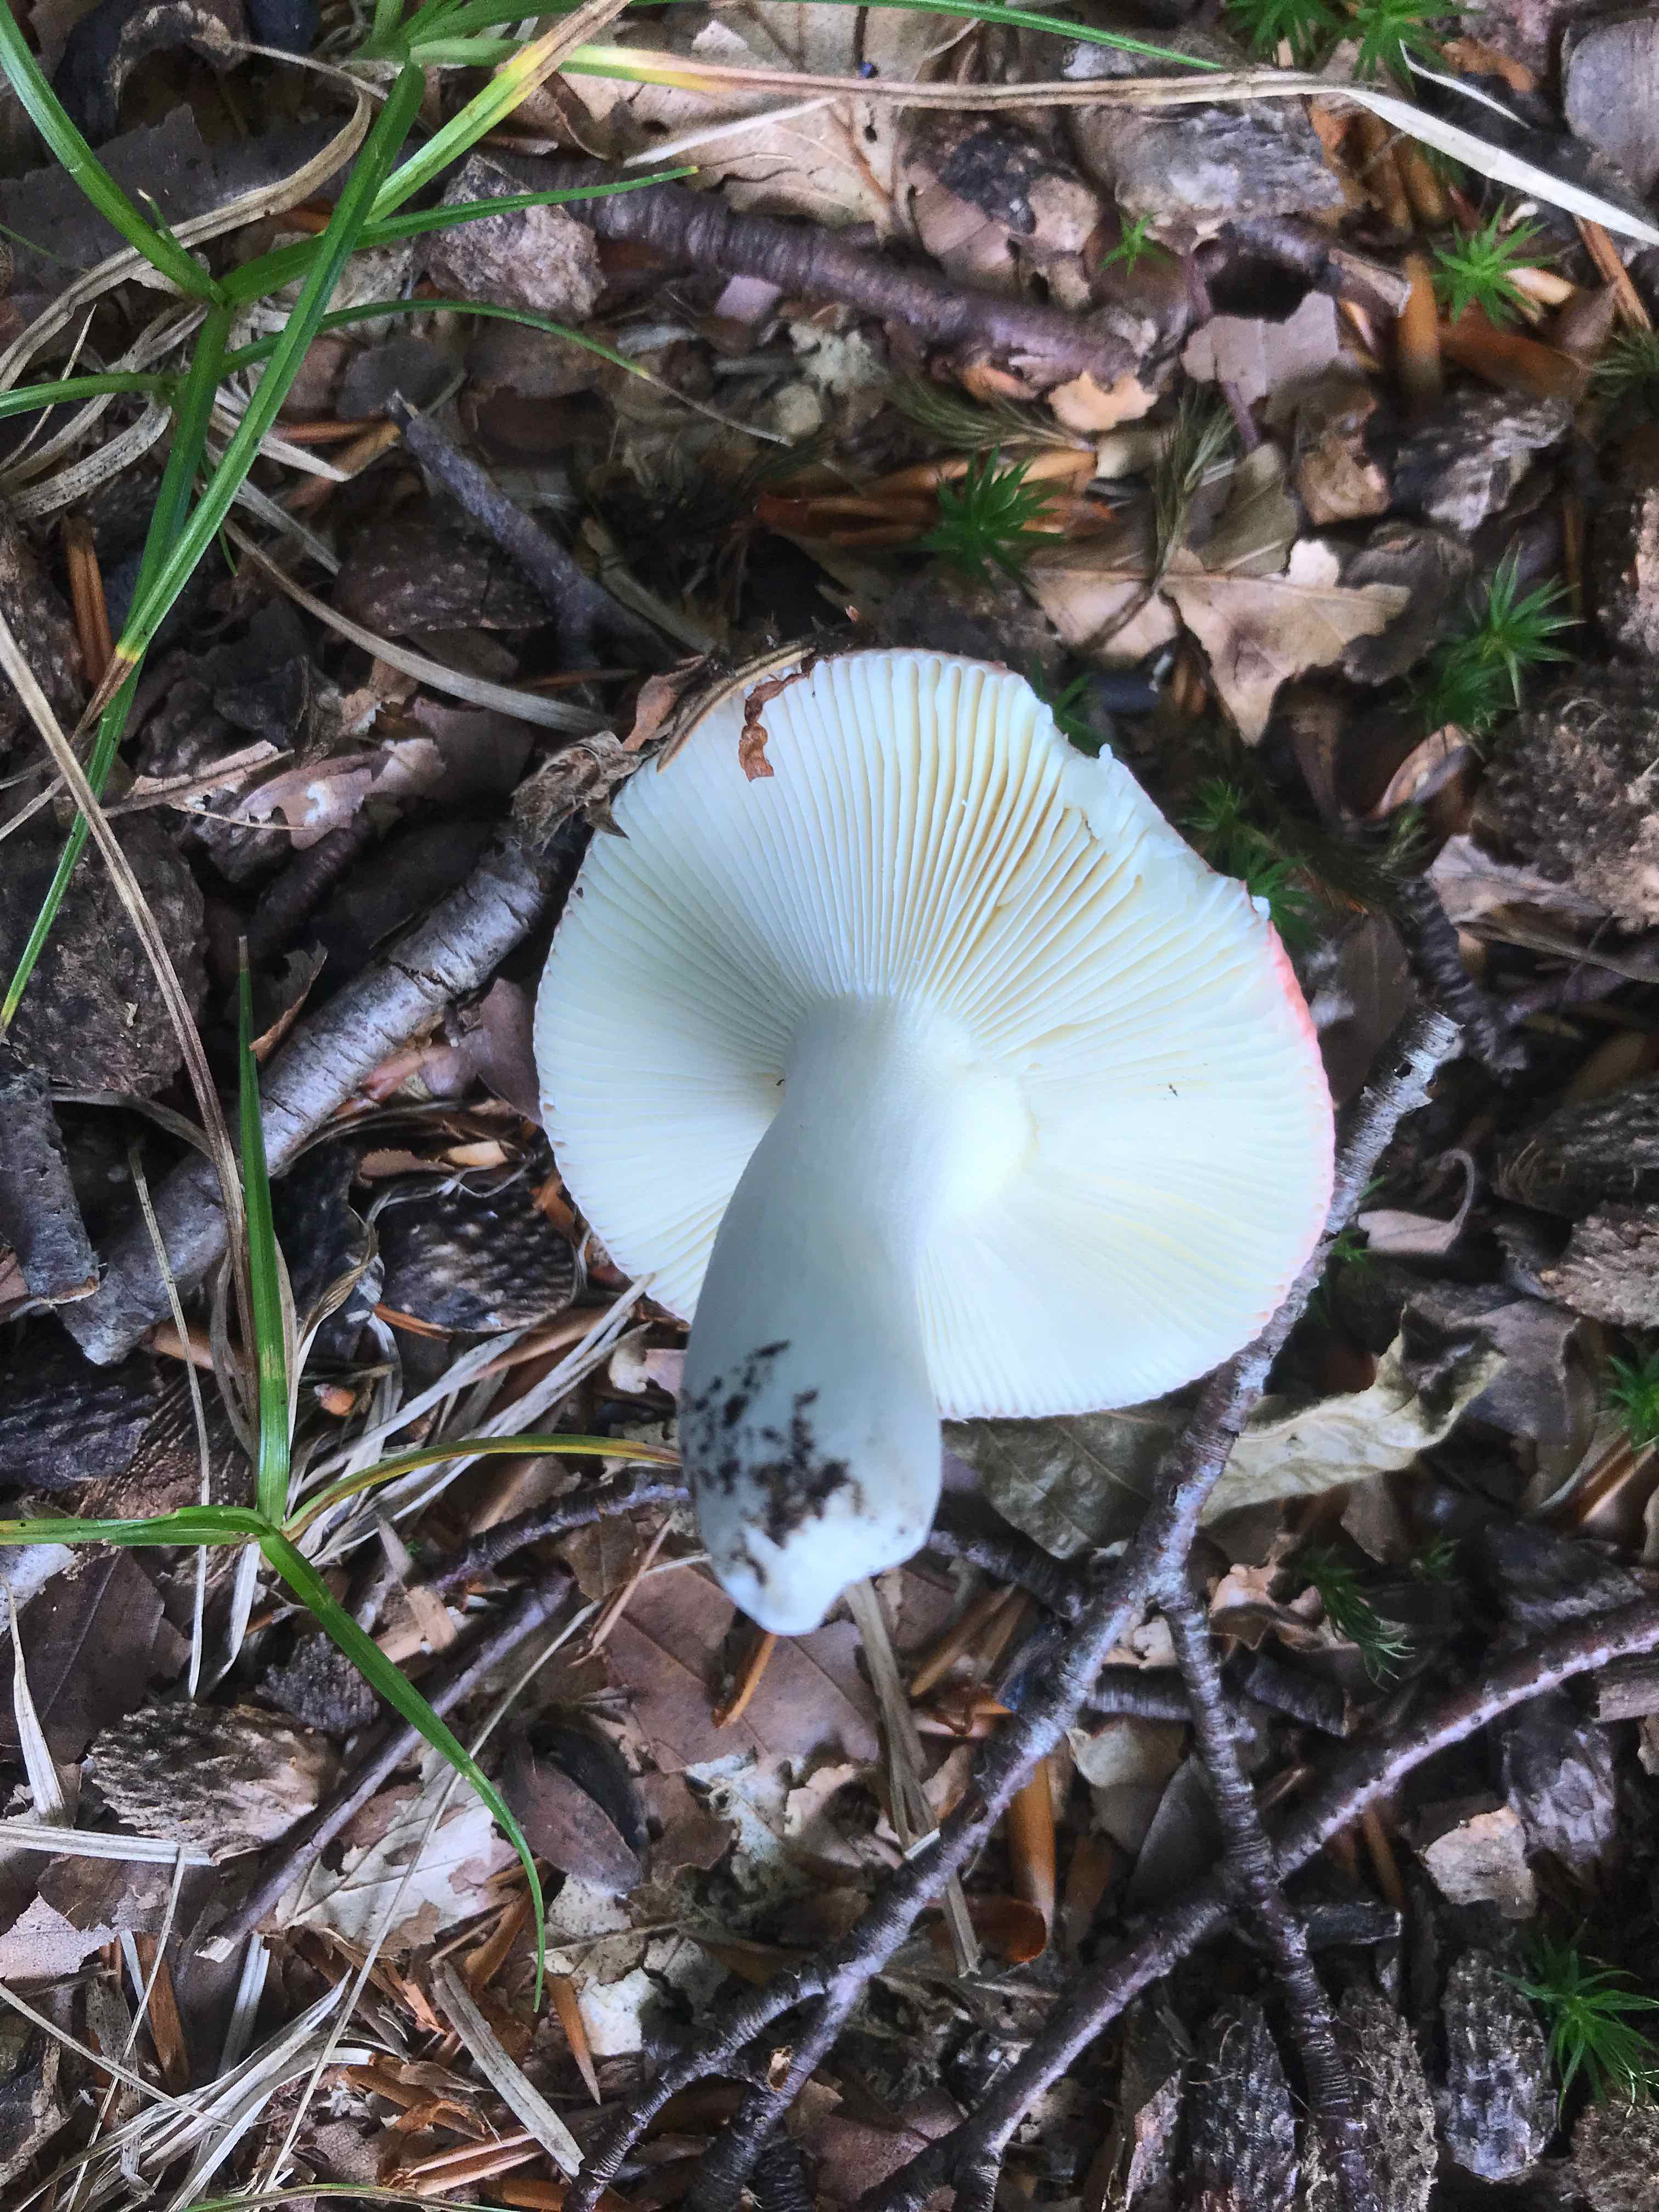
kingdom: Fungi
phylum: Basidiomycota
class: Agaricomycetes
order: Russulales
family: Russulaceae
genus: Russula
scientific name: Russula vesca
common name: spiselig skørhat
